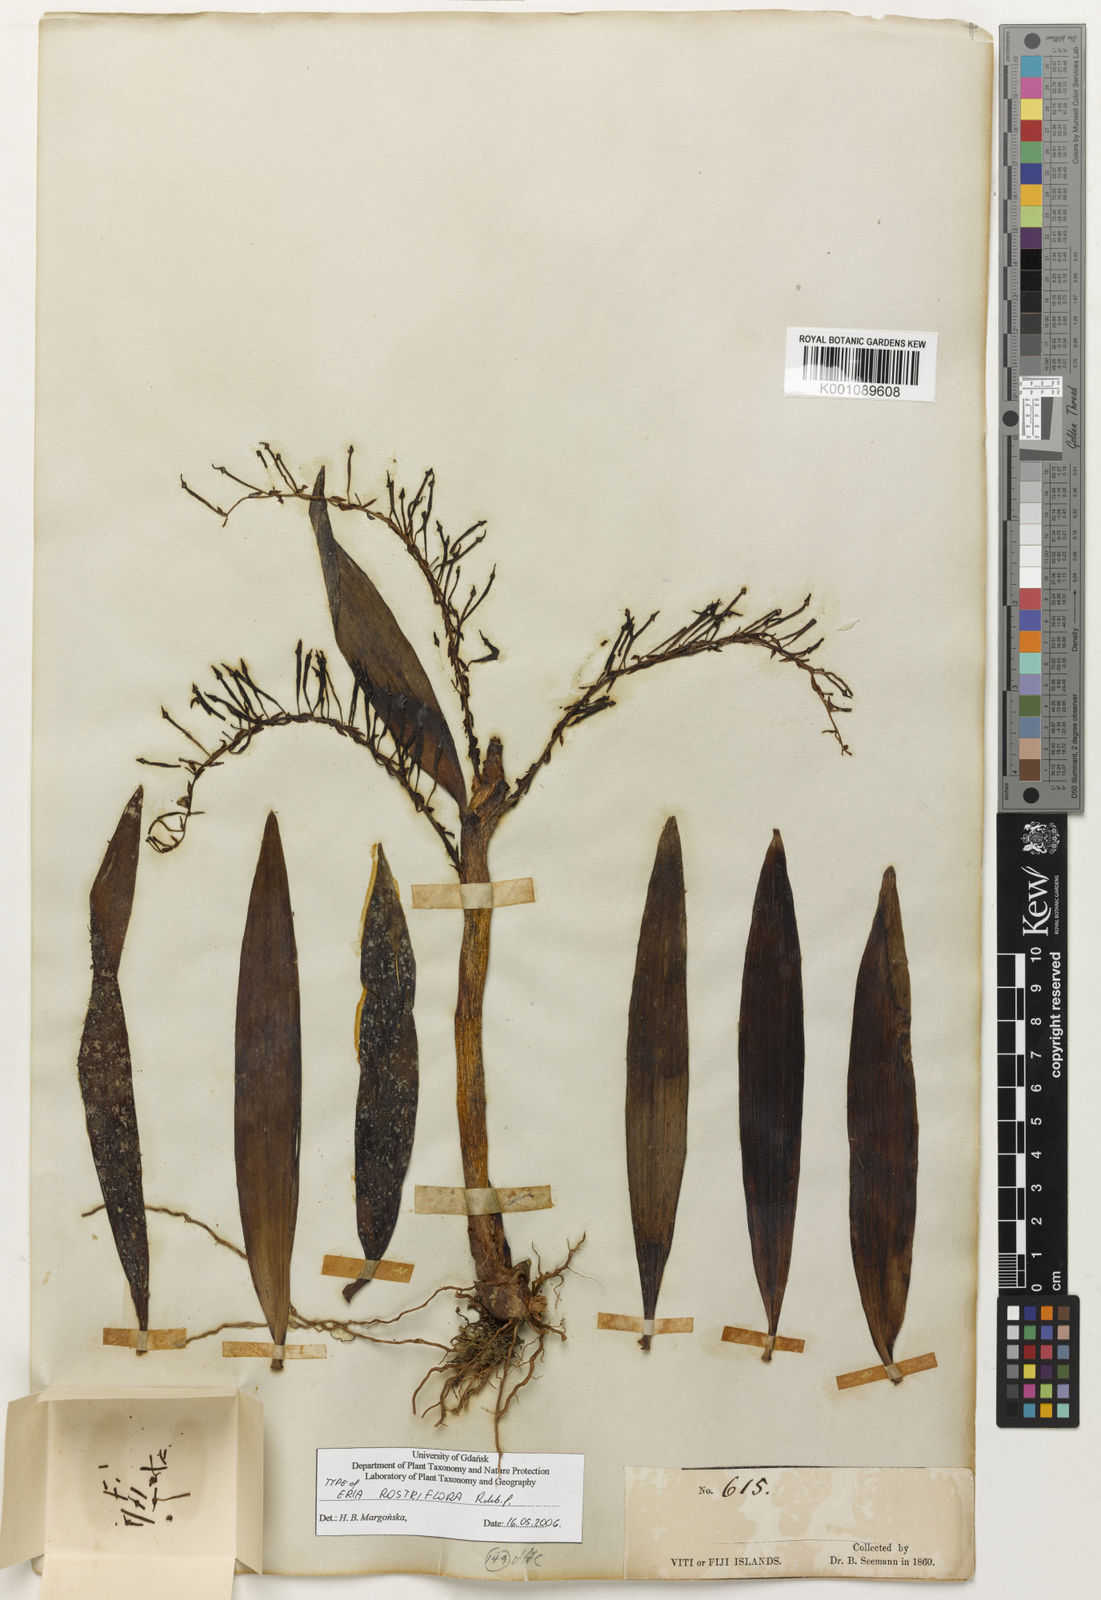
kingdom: Plantae
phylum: Tracheophyta
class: Liliopsida
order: Asparagales
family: Orchidaceae
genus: Eria
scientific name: Eria rostriflora
